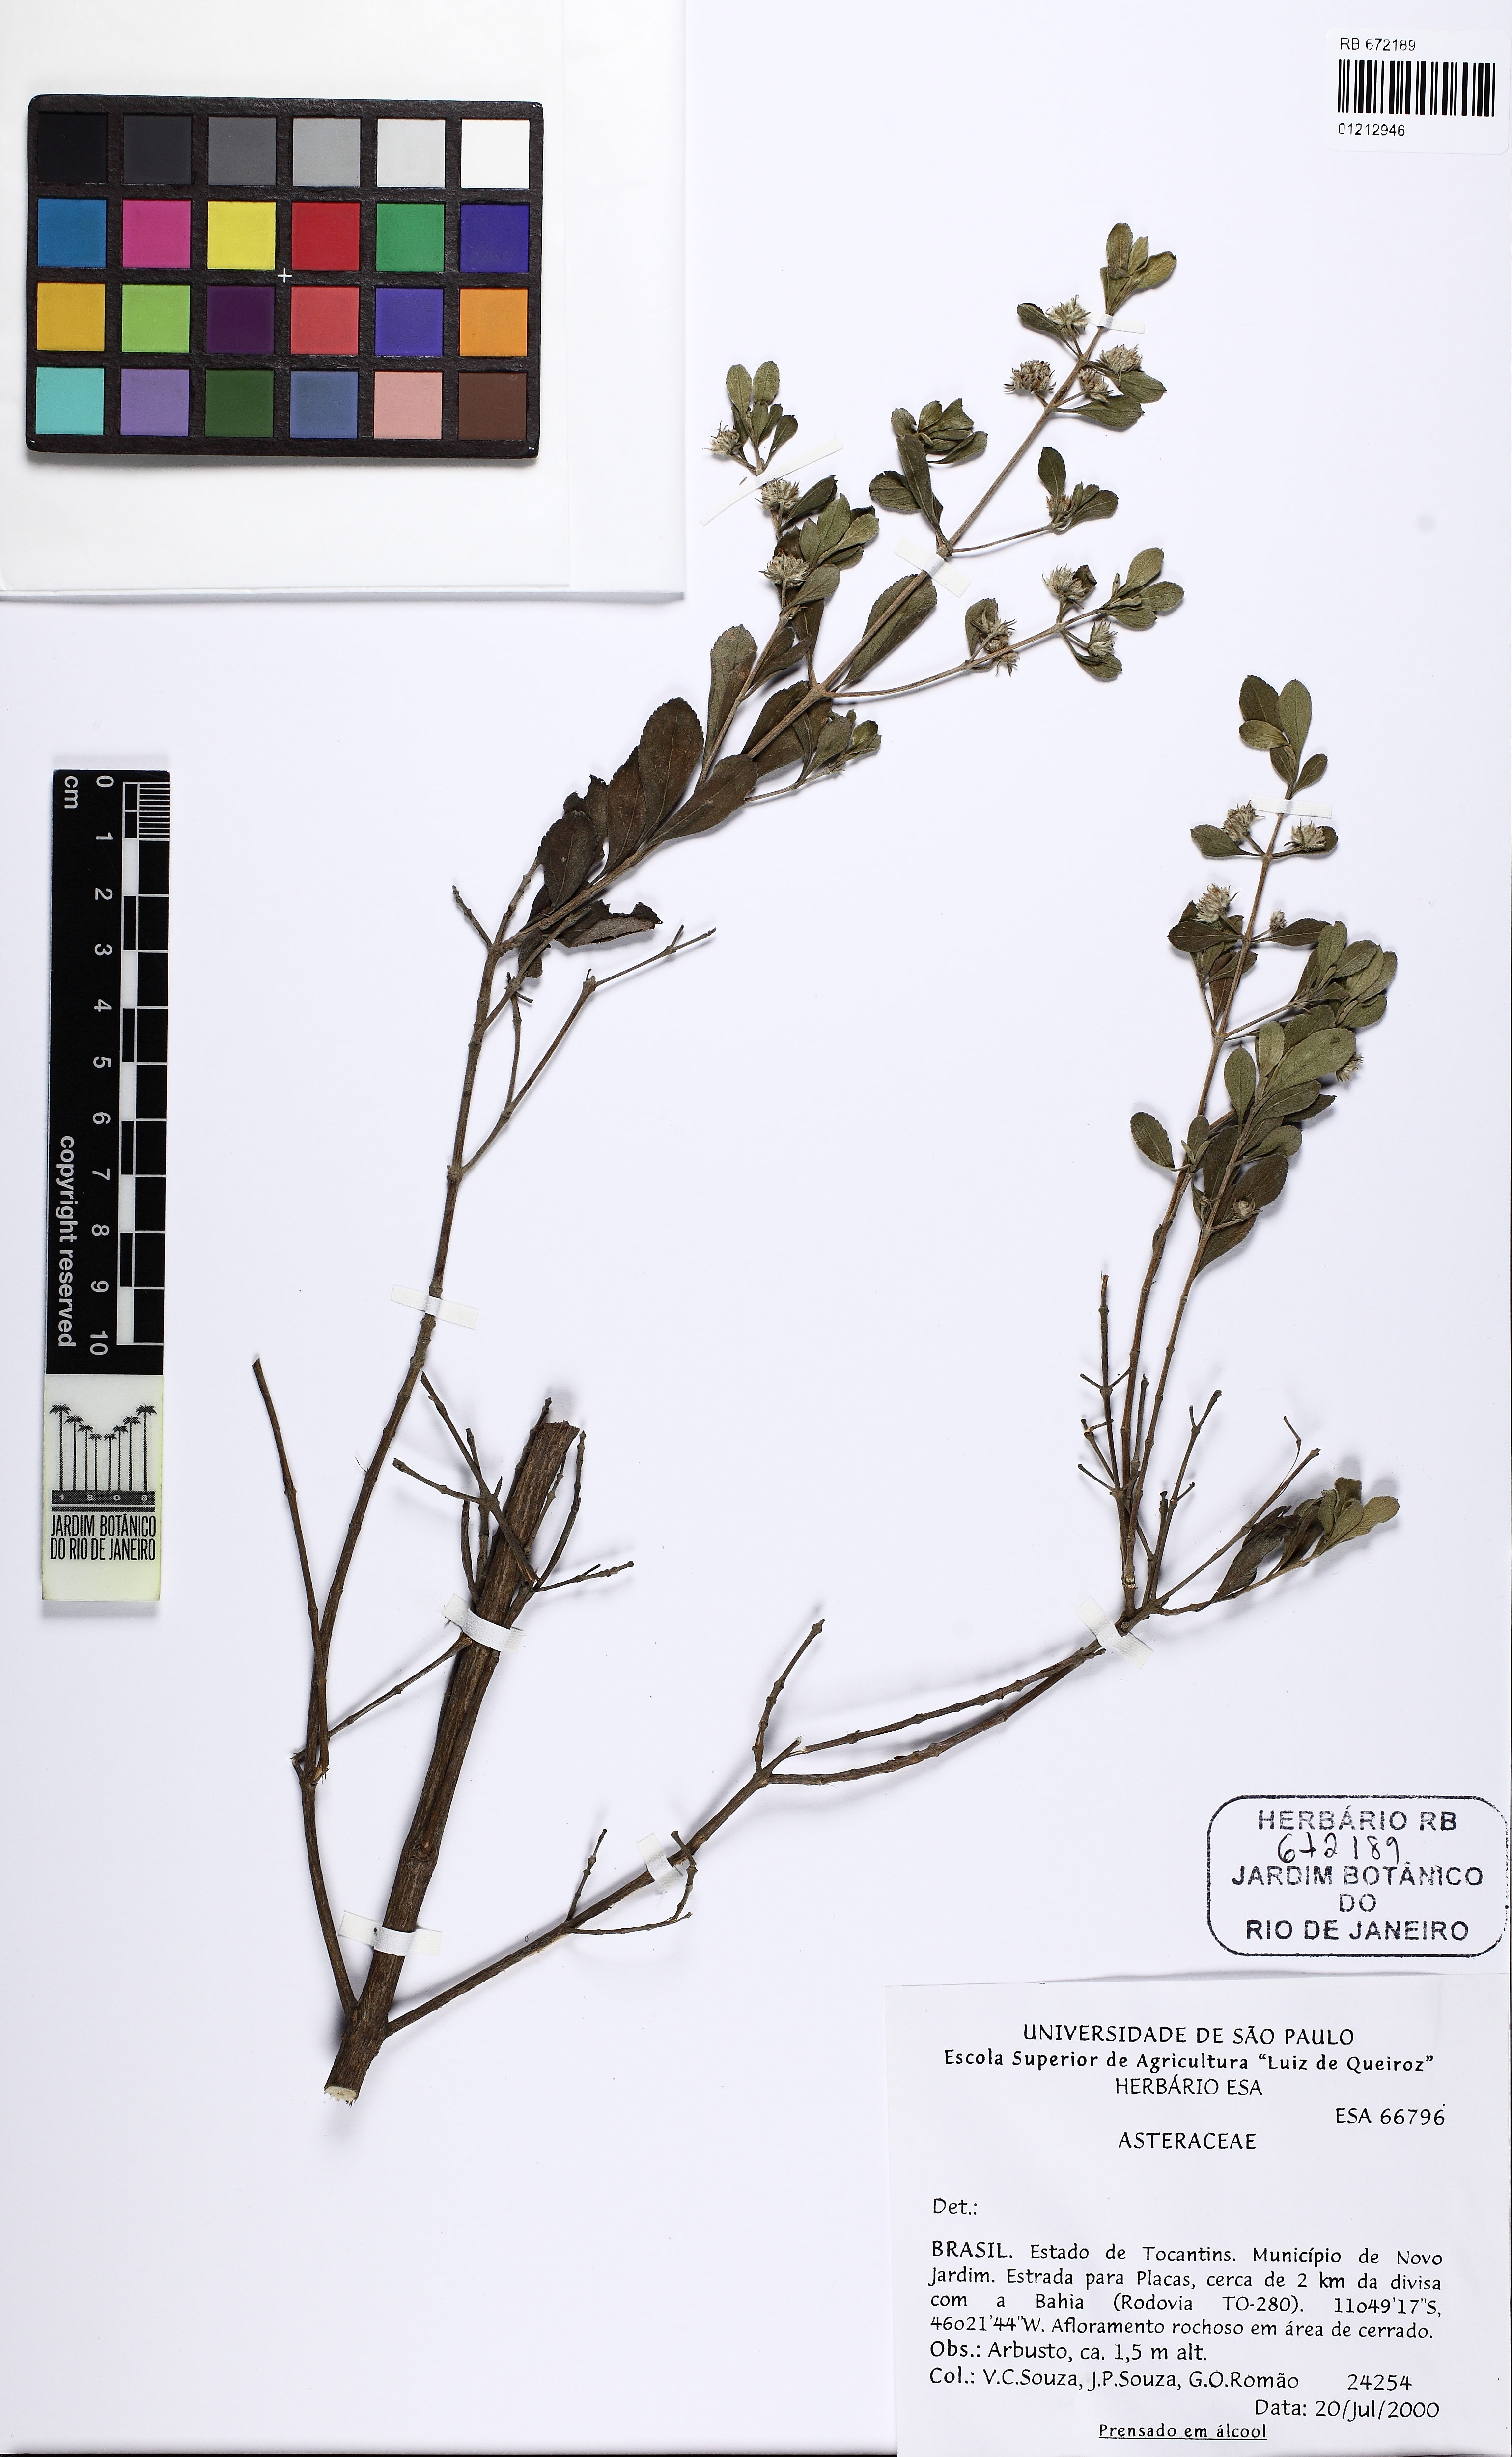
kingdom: Plantae
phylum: Tracheophyta
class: Magnoliopsida
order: Lamiales
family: Lamiaceae
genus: Hyptis
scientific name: Hyptis
